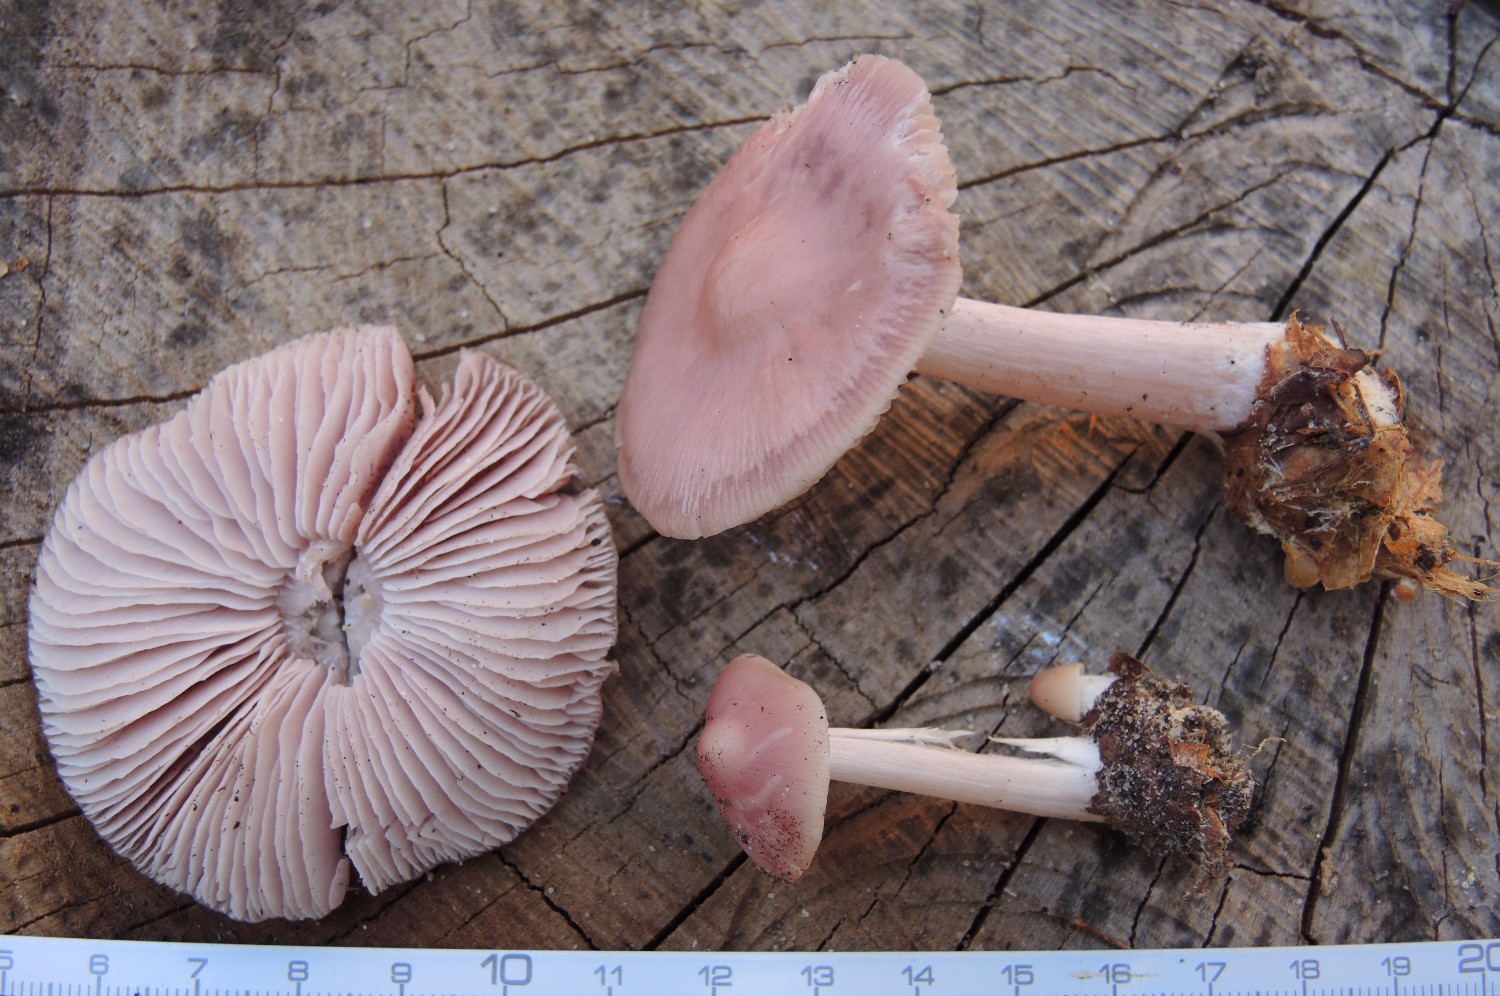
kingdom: Fungi
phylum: Basidiomycota
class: Agaricomycetes
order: Agaricales
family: Mycenaceae
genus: Mycena
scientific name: Mycena rosea
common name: rosa huesvamp
